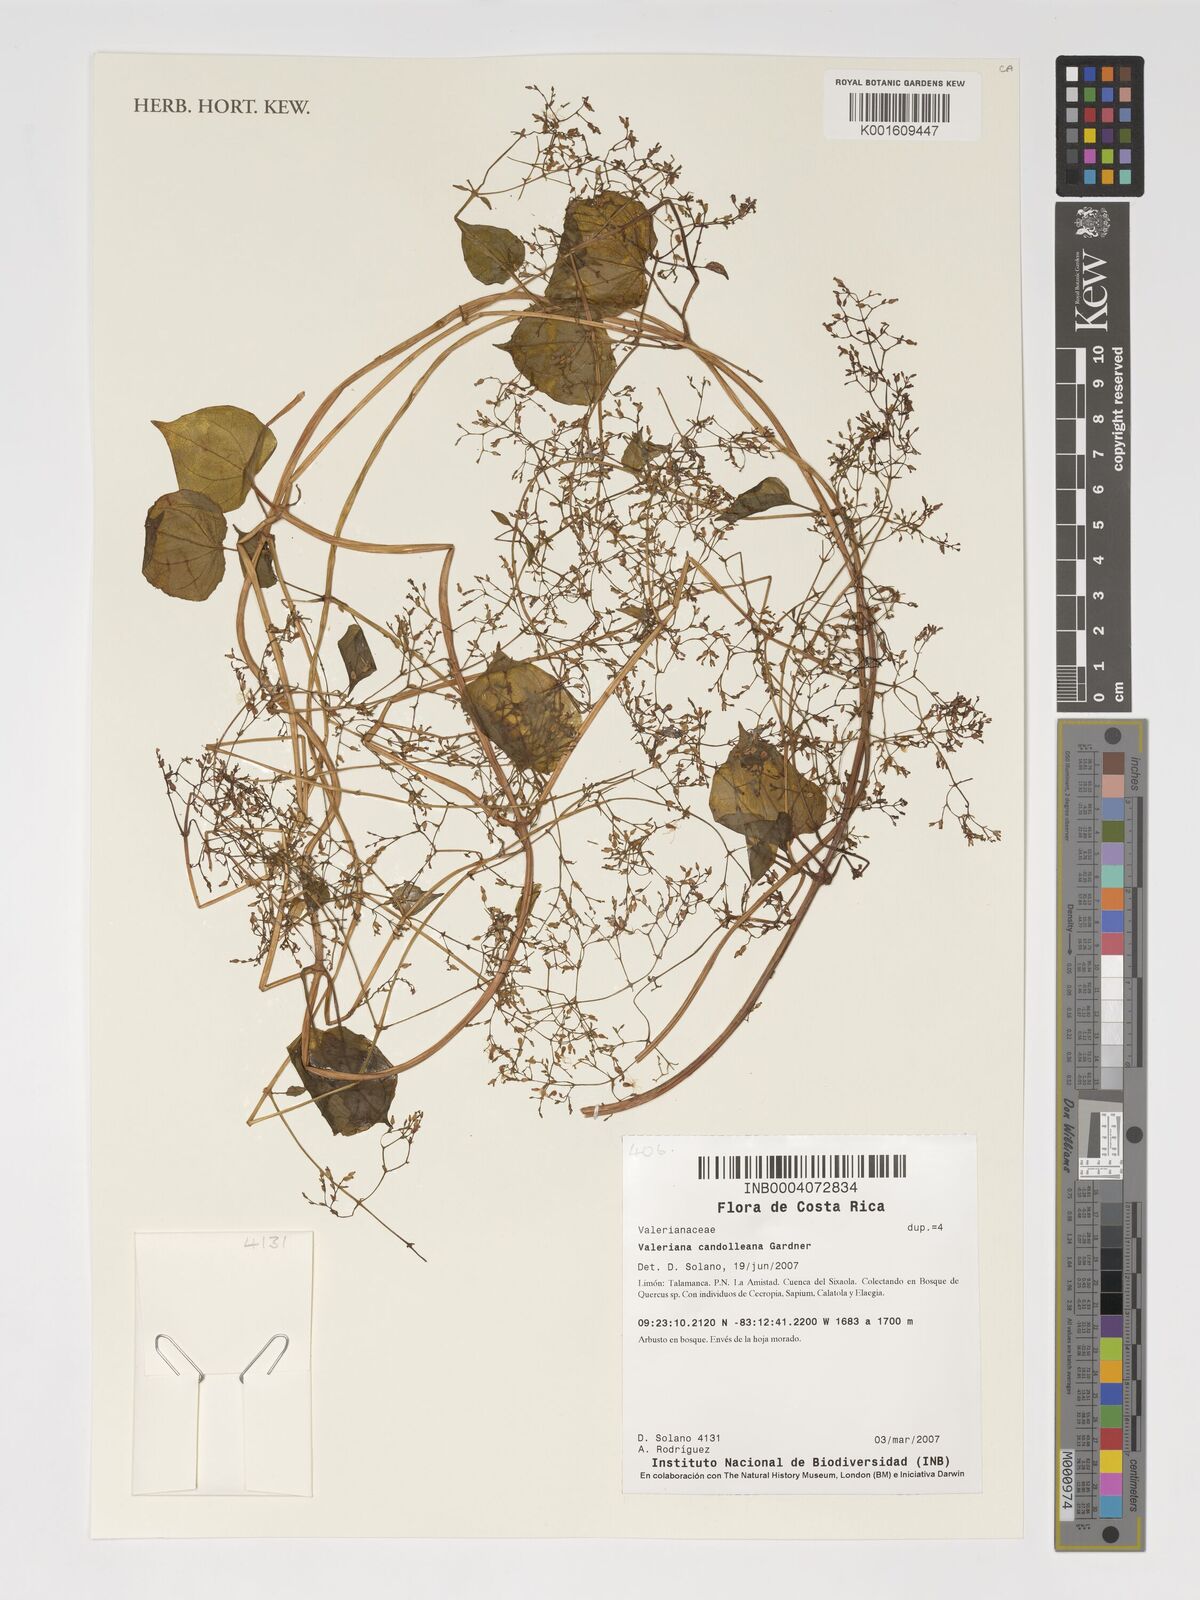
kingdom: Plantae
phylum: Tracheophyta
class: Magnoliopsida
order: Dipsacales
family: Caprifoliaceae
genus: Valeriana
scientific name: Valeriana candolleana
